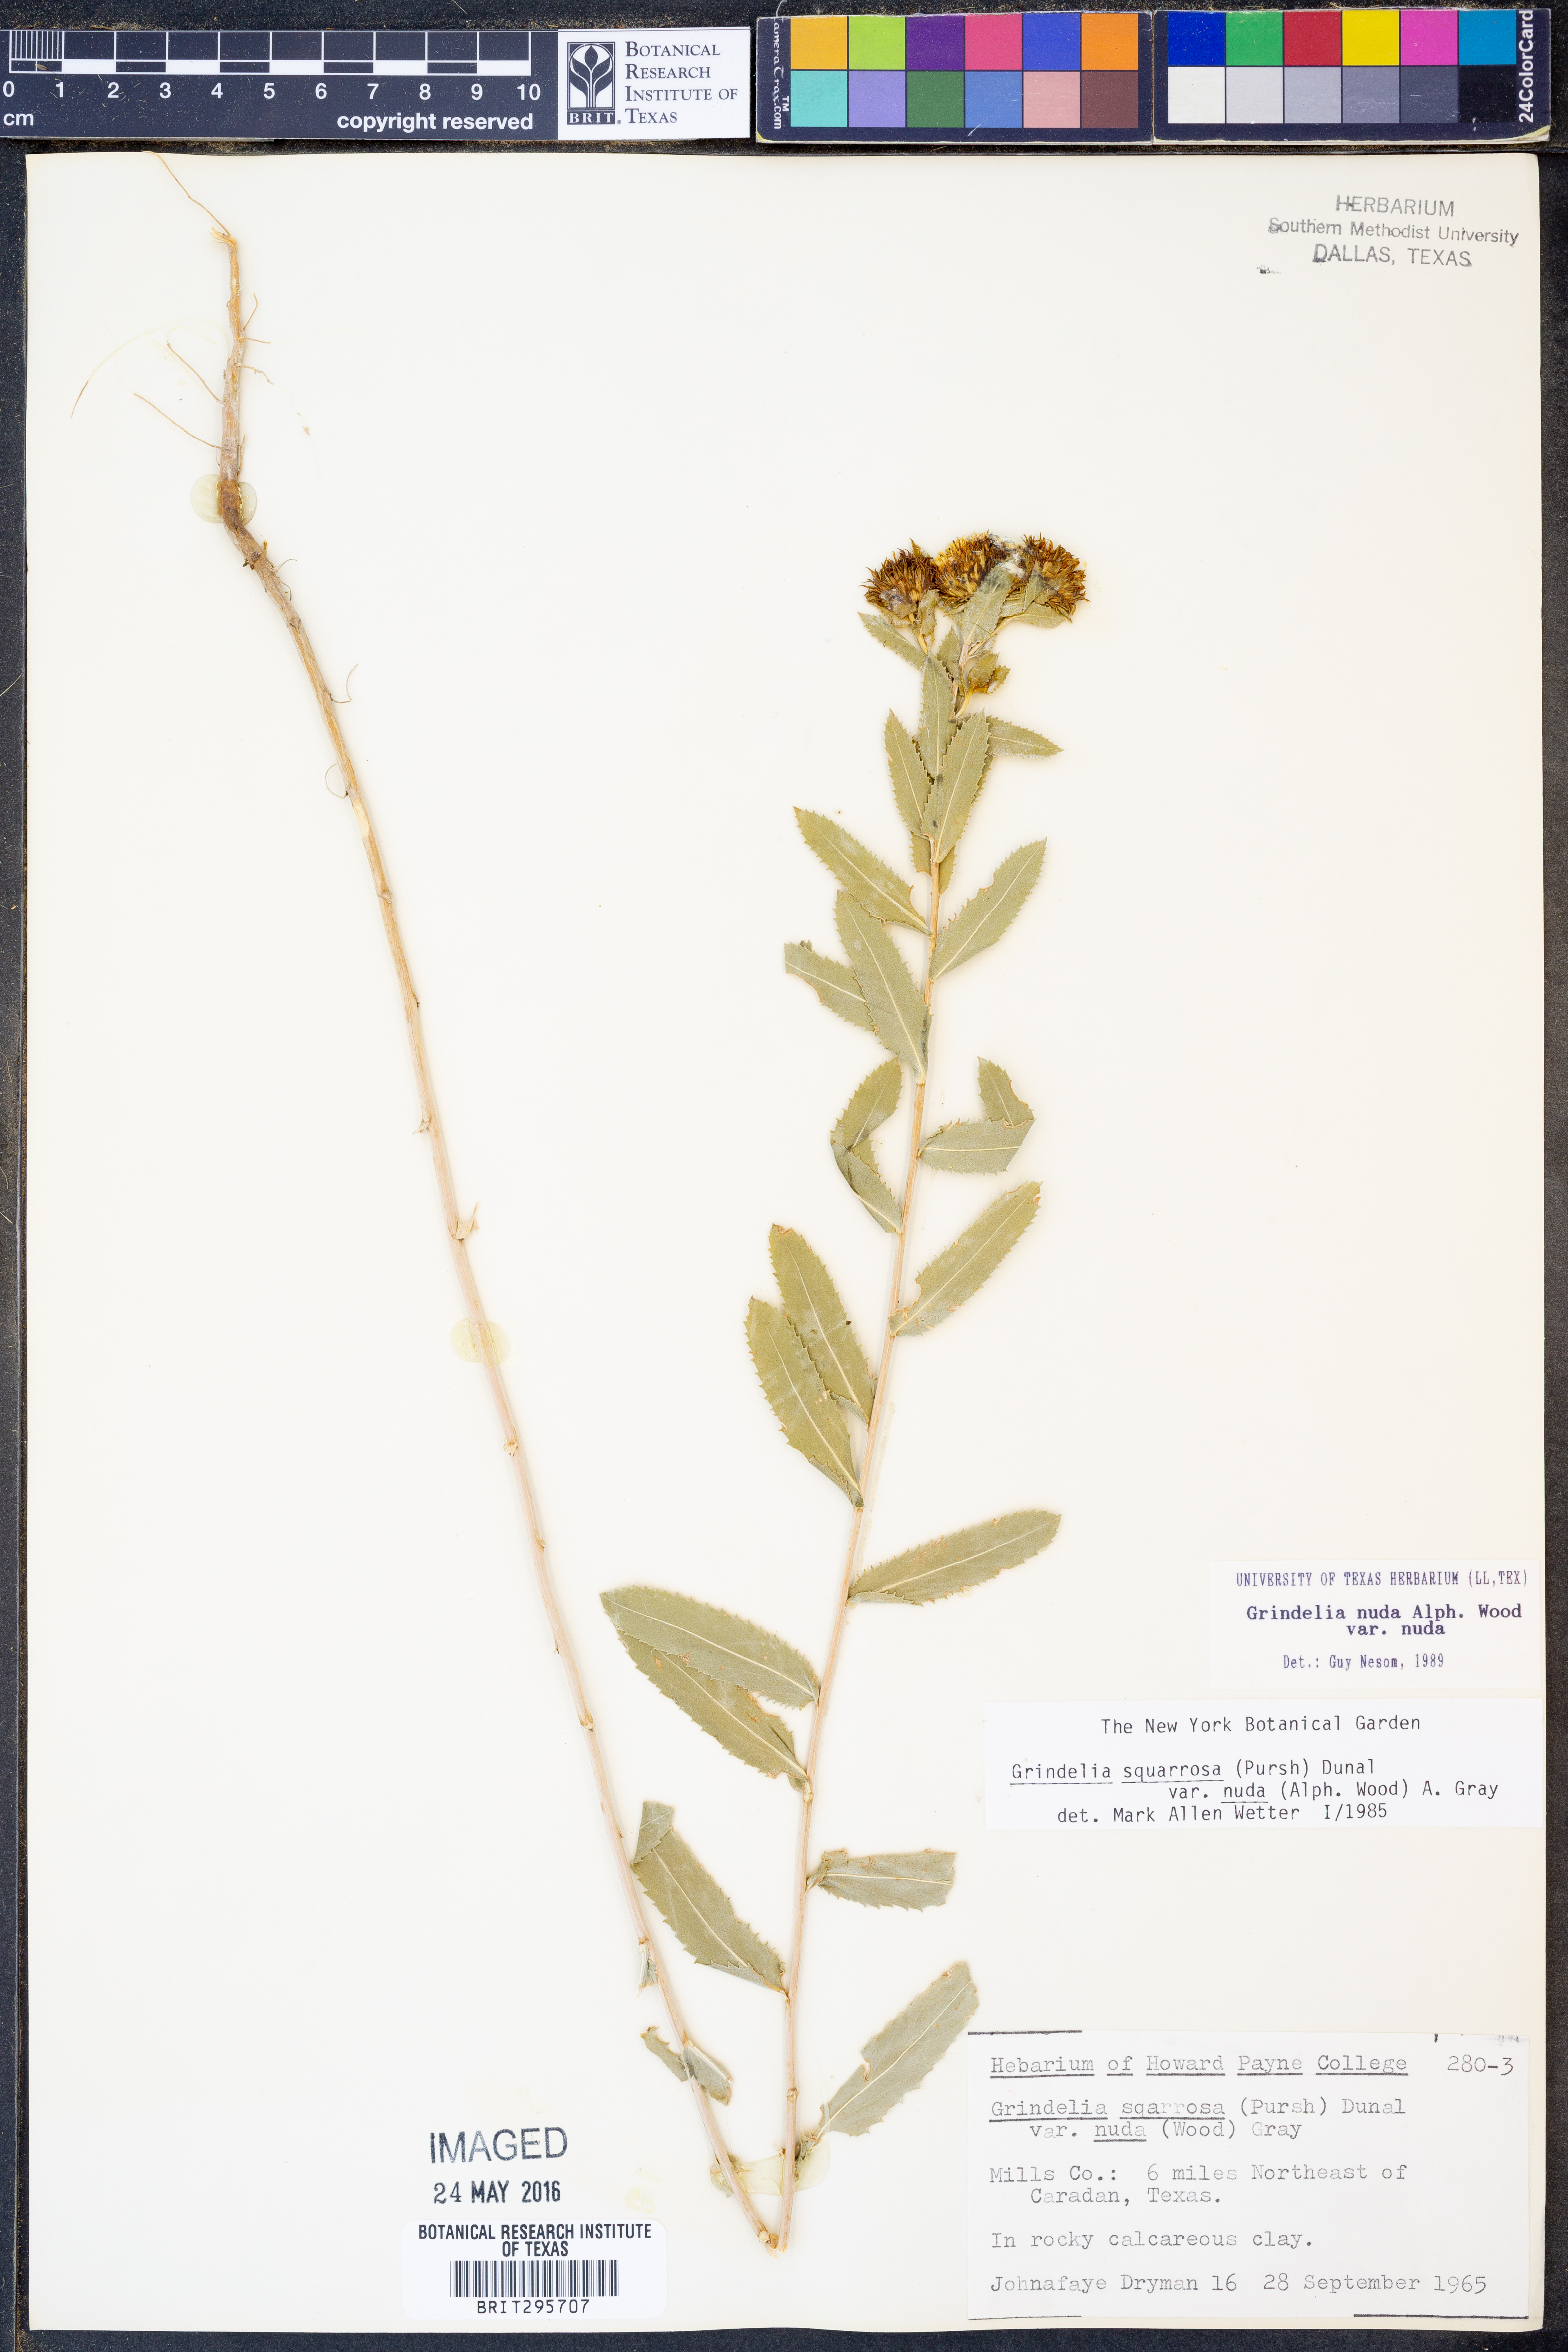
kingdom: Plantae
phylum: Tracheophyta
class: Magnoliopsida
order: Asterales
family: Asteraceae
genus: Grindelia
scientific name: Grindelia nuda
